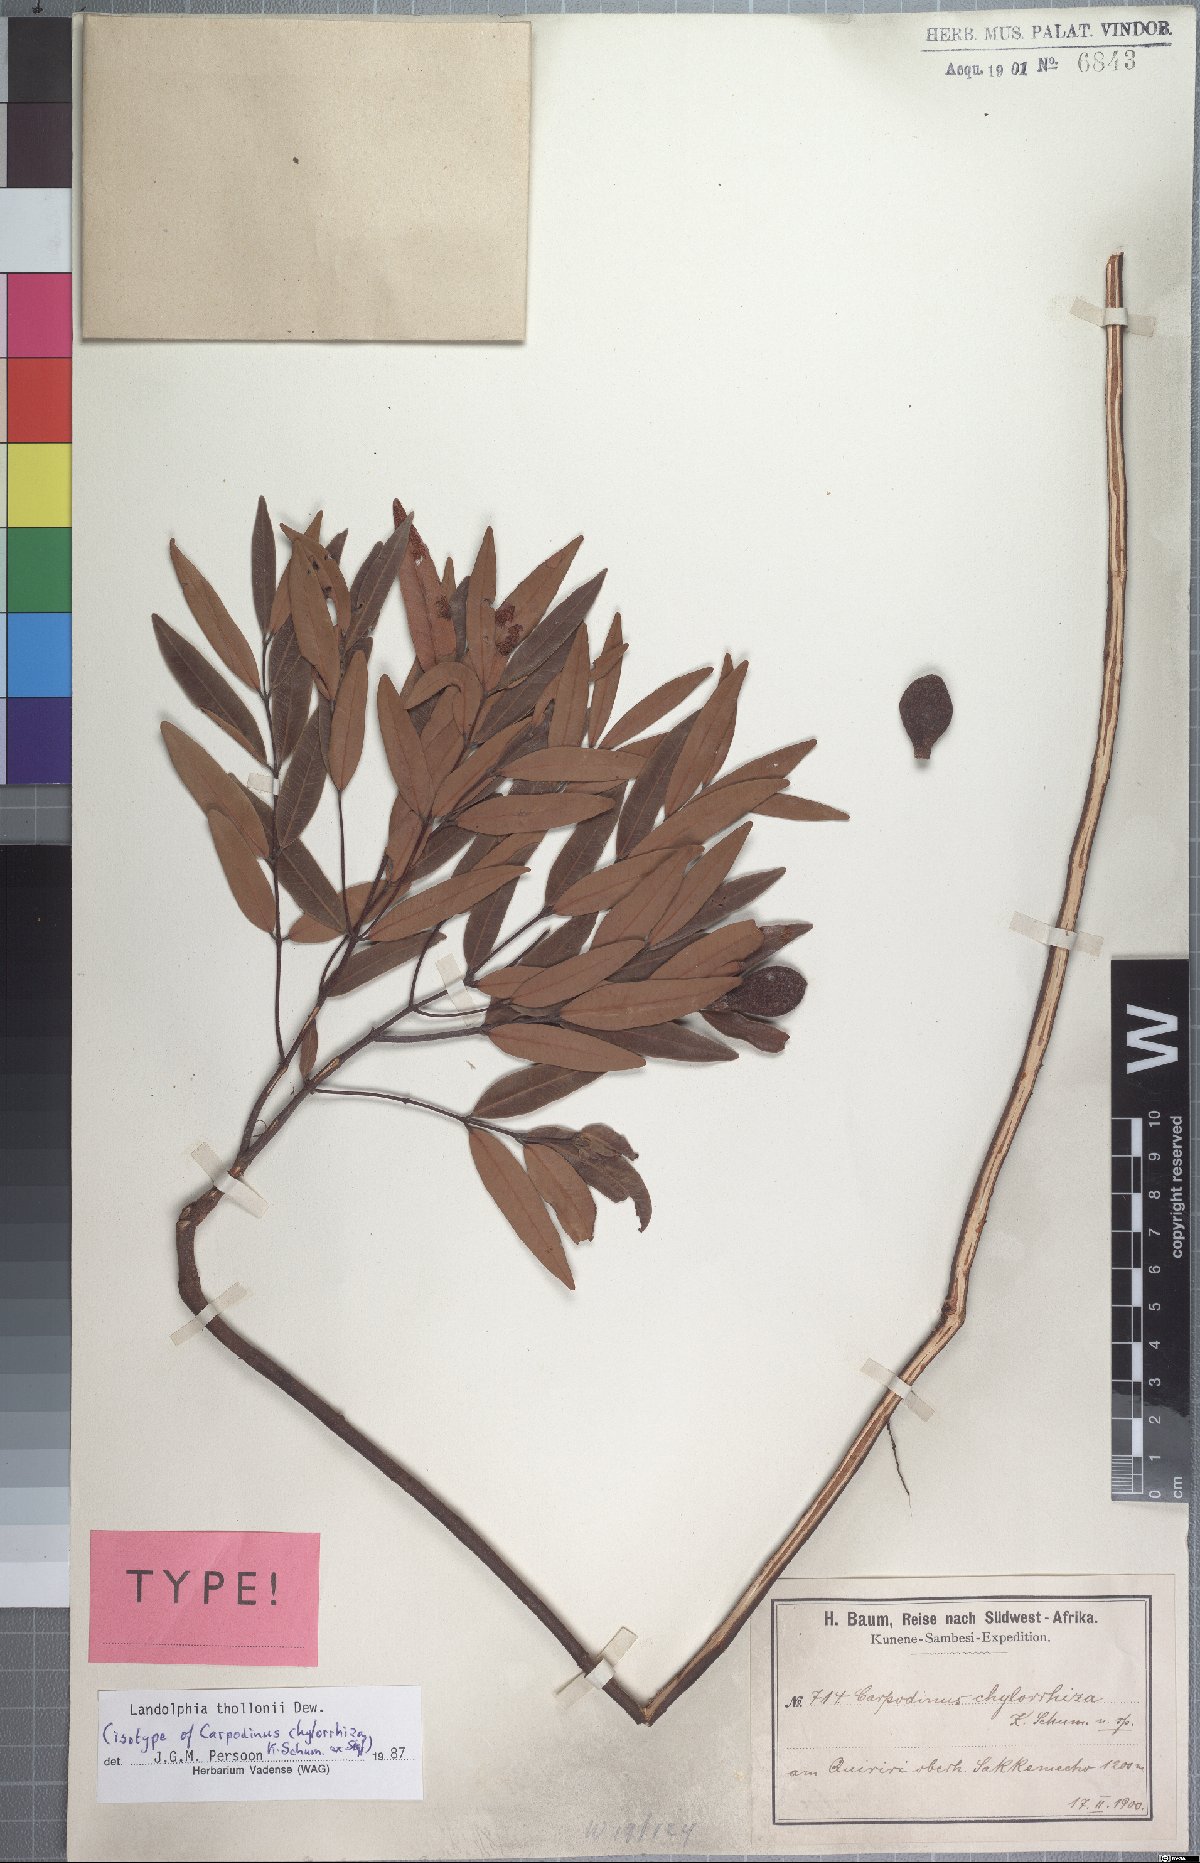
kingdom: Plantae
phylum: Tracheophyta
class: Magnoliopsida
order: Gentianales
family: Apocynaceae
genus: Landolphia
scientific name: Landolphia thollonii
